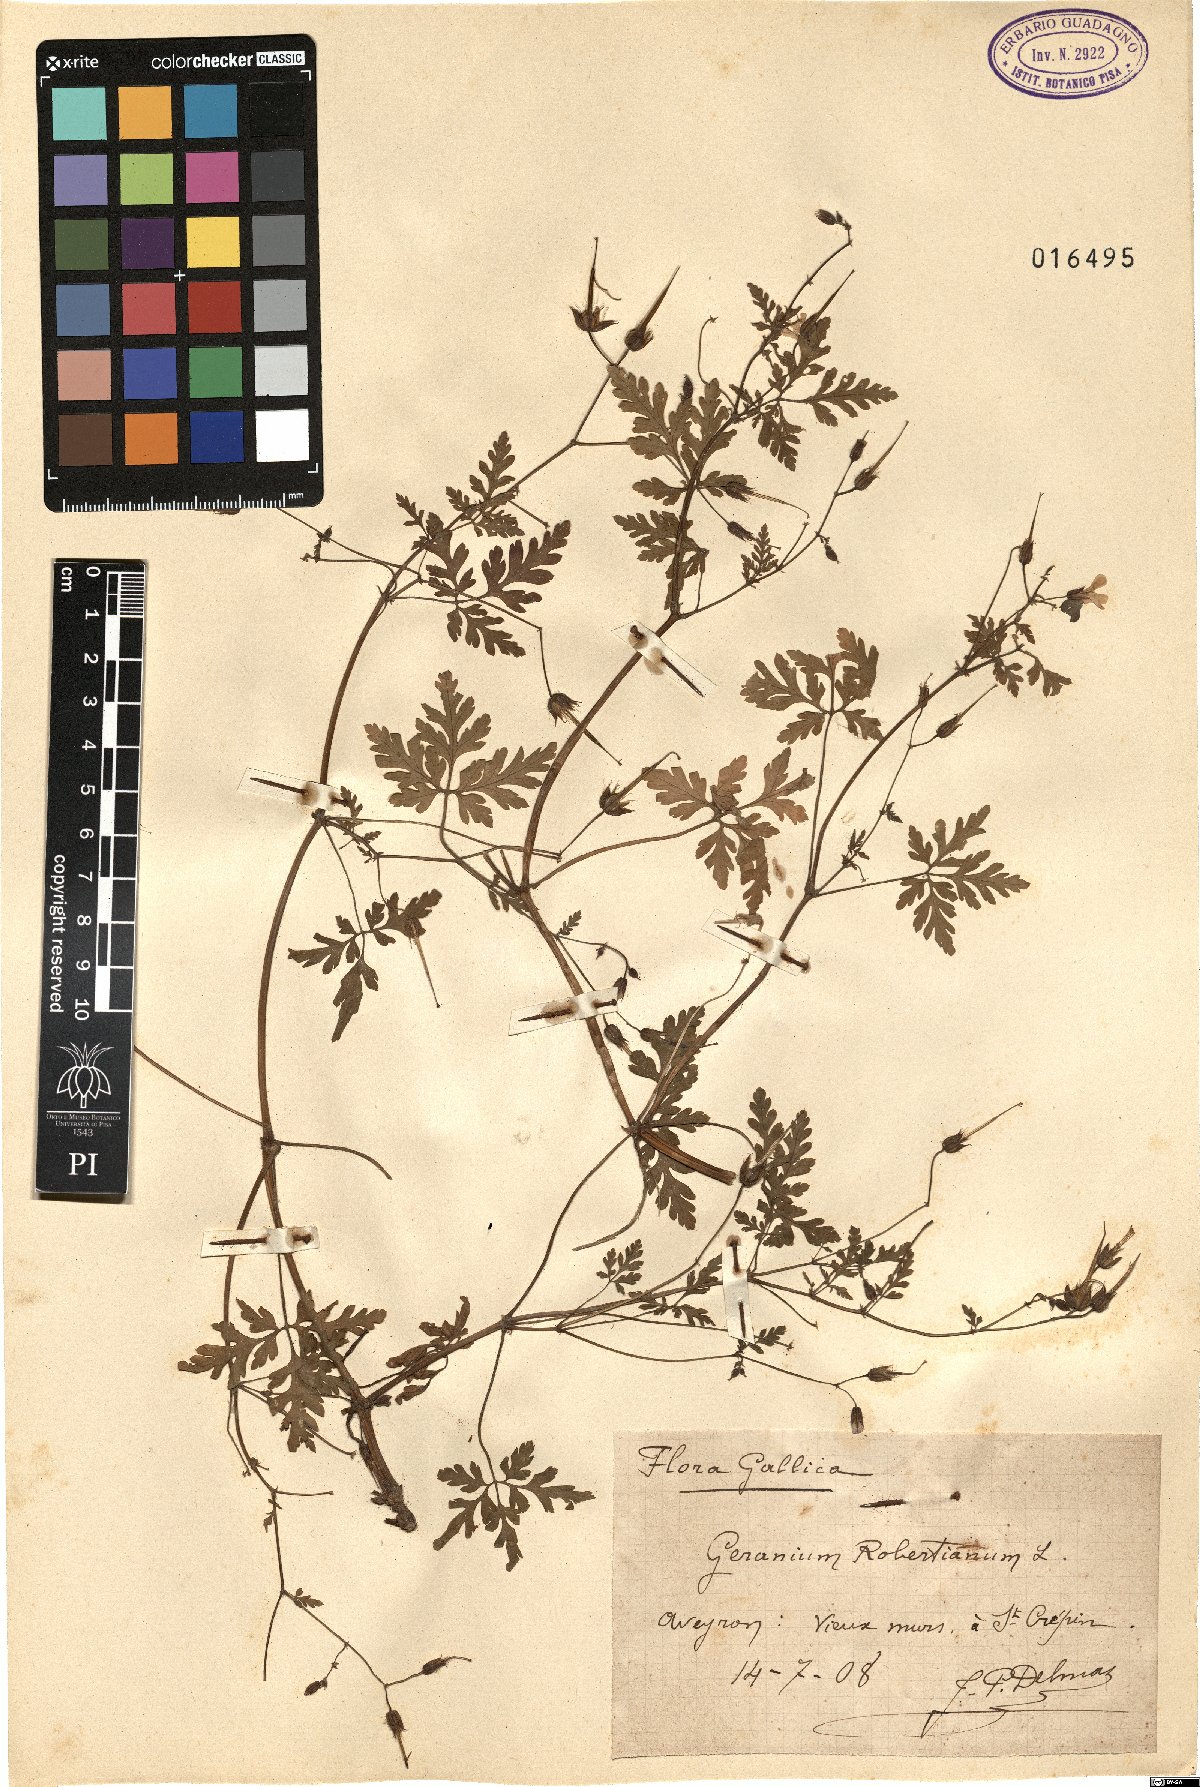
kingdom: Plantae
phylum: Tracheophyta
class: Magnoliopsida
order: Geraniales
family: Geraniaceae
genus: Geranium
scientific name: Geranium robertianum
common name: Herb-robert
